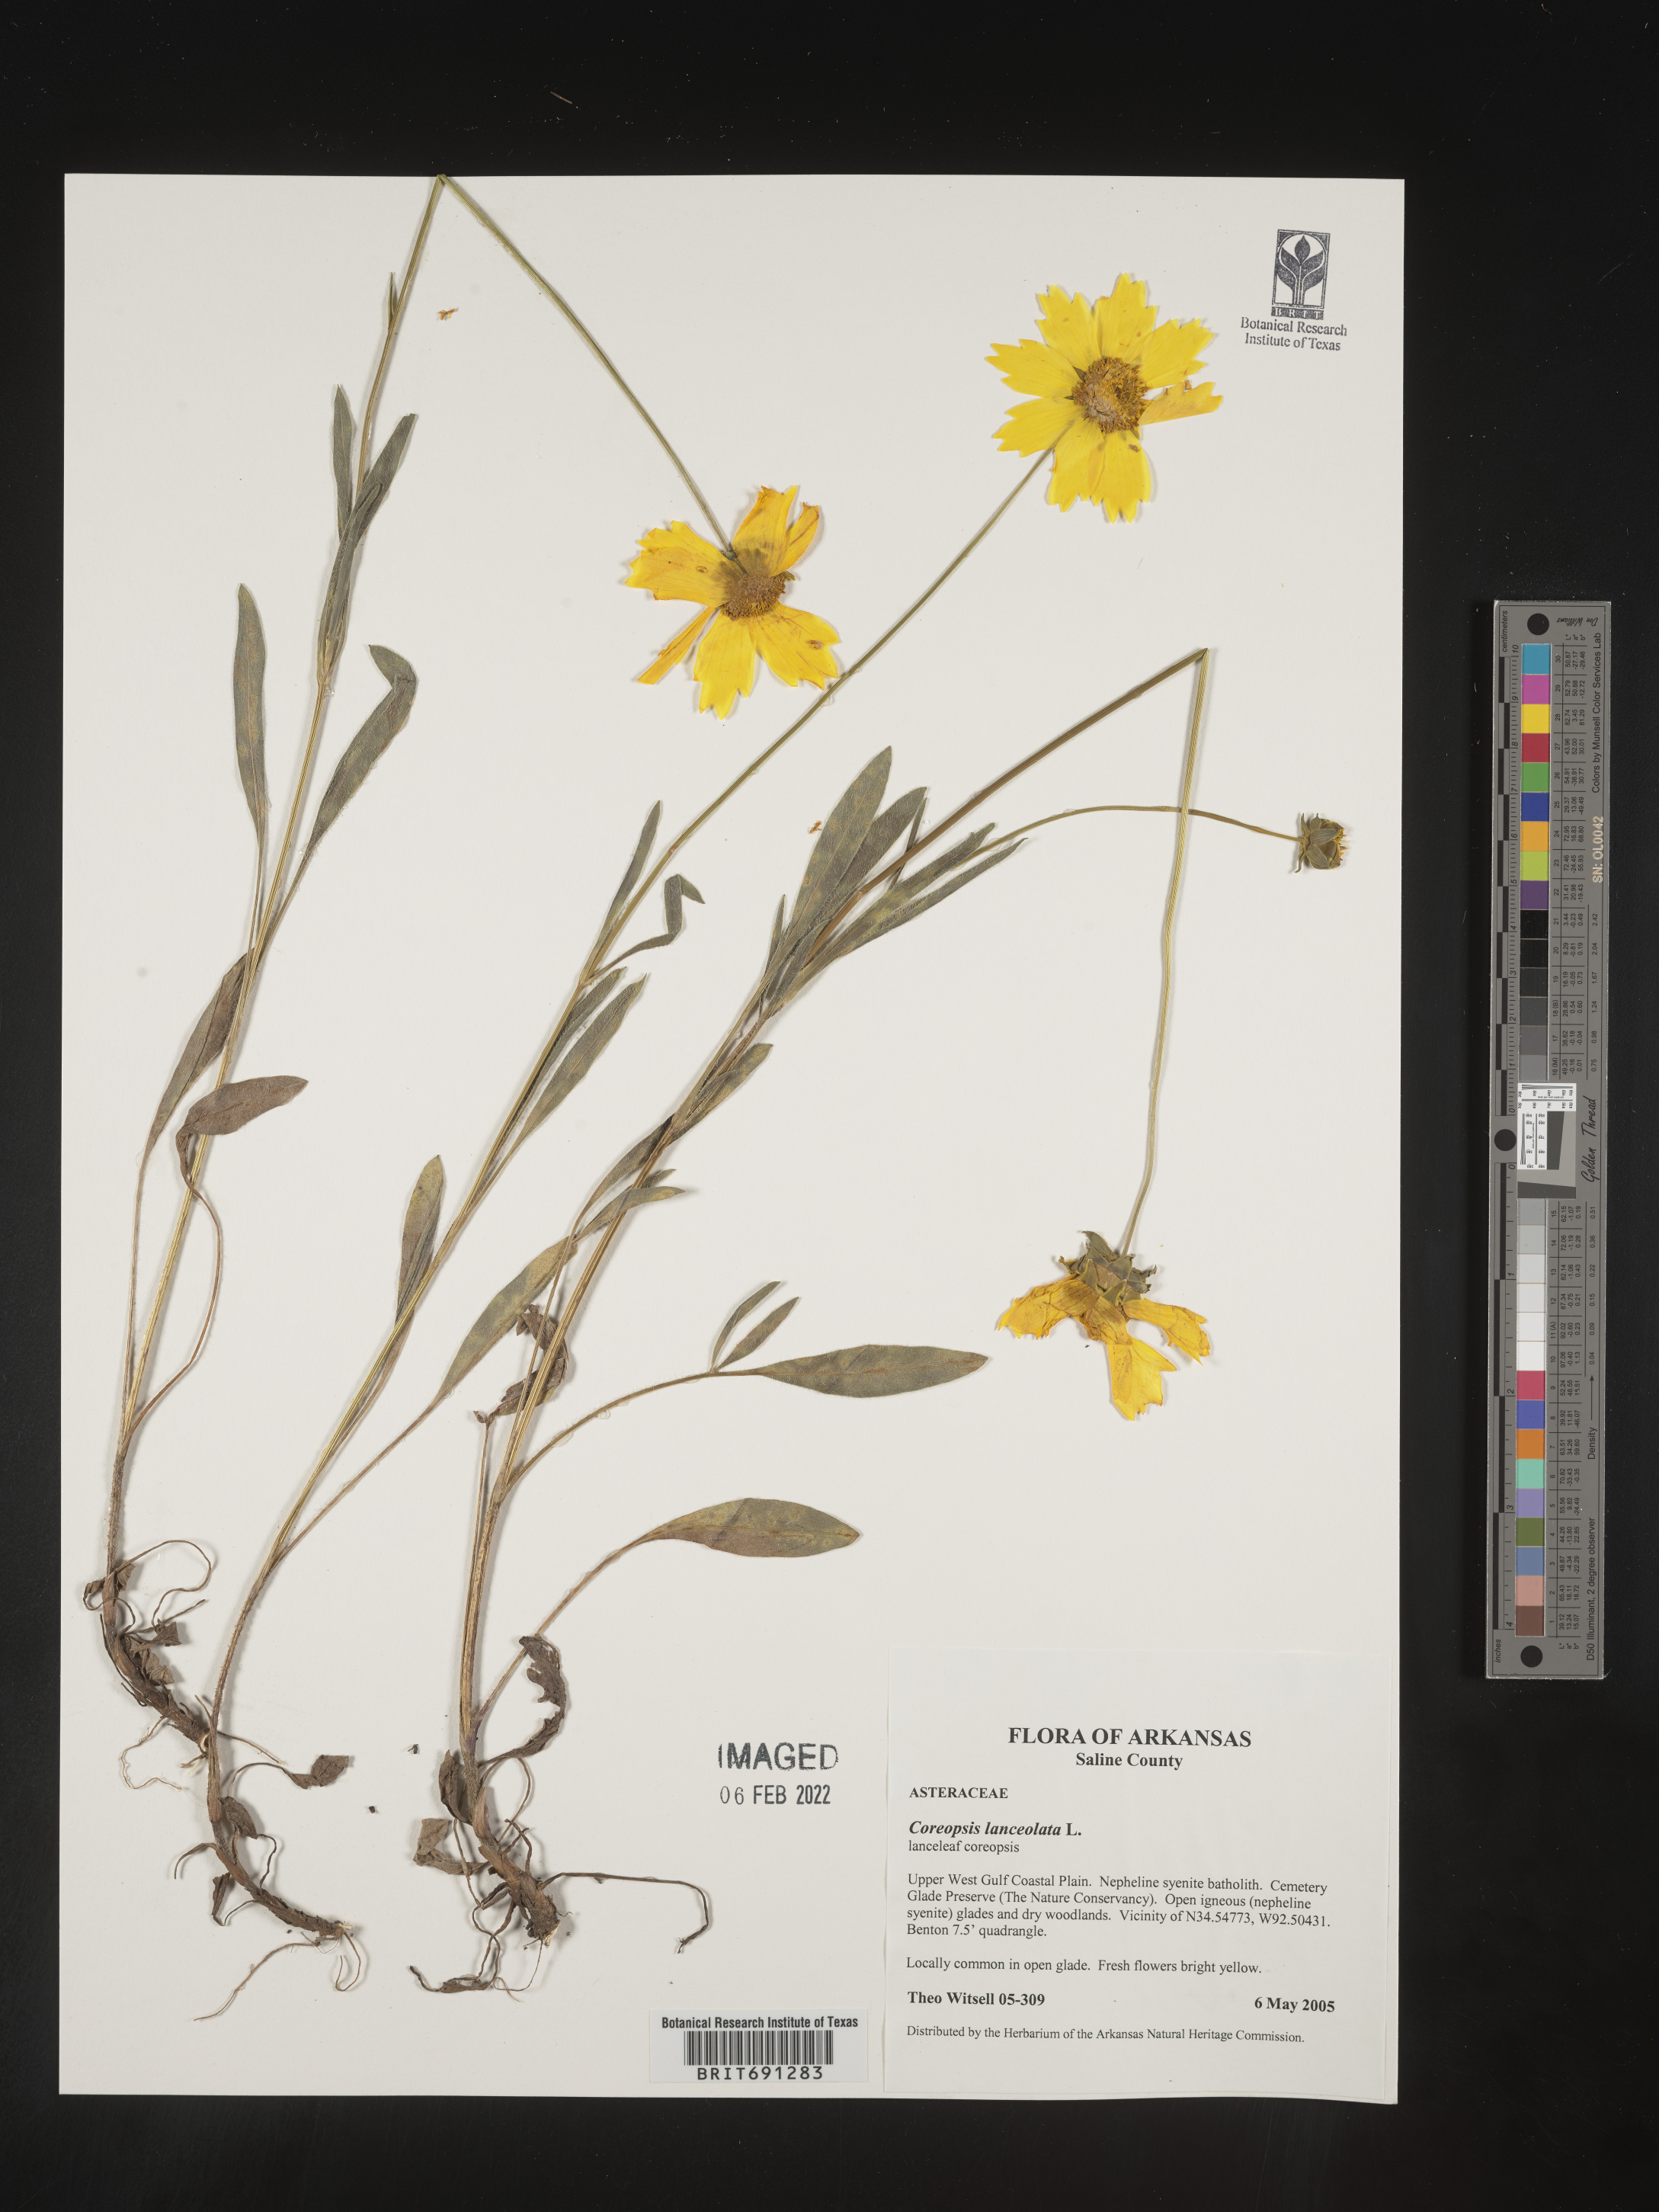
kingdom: Plantae
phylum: Tracheophyta
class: Magnoliopsida
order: Asterales
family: Asteraceae
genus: Coreopsis
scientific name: Coreopsis lanceolata
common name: Garden coreopsis
